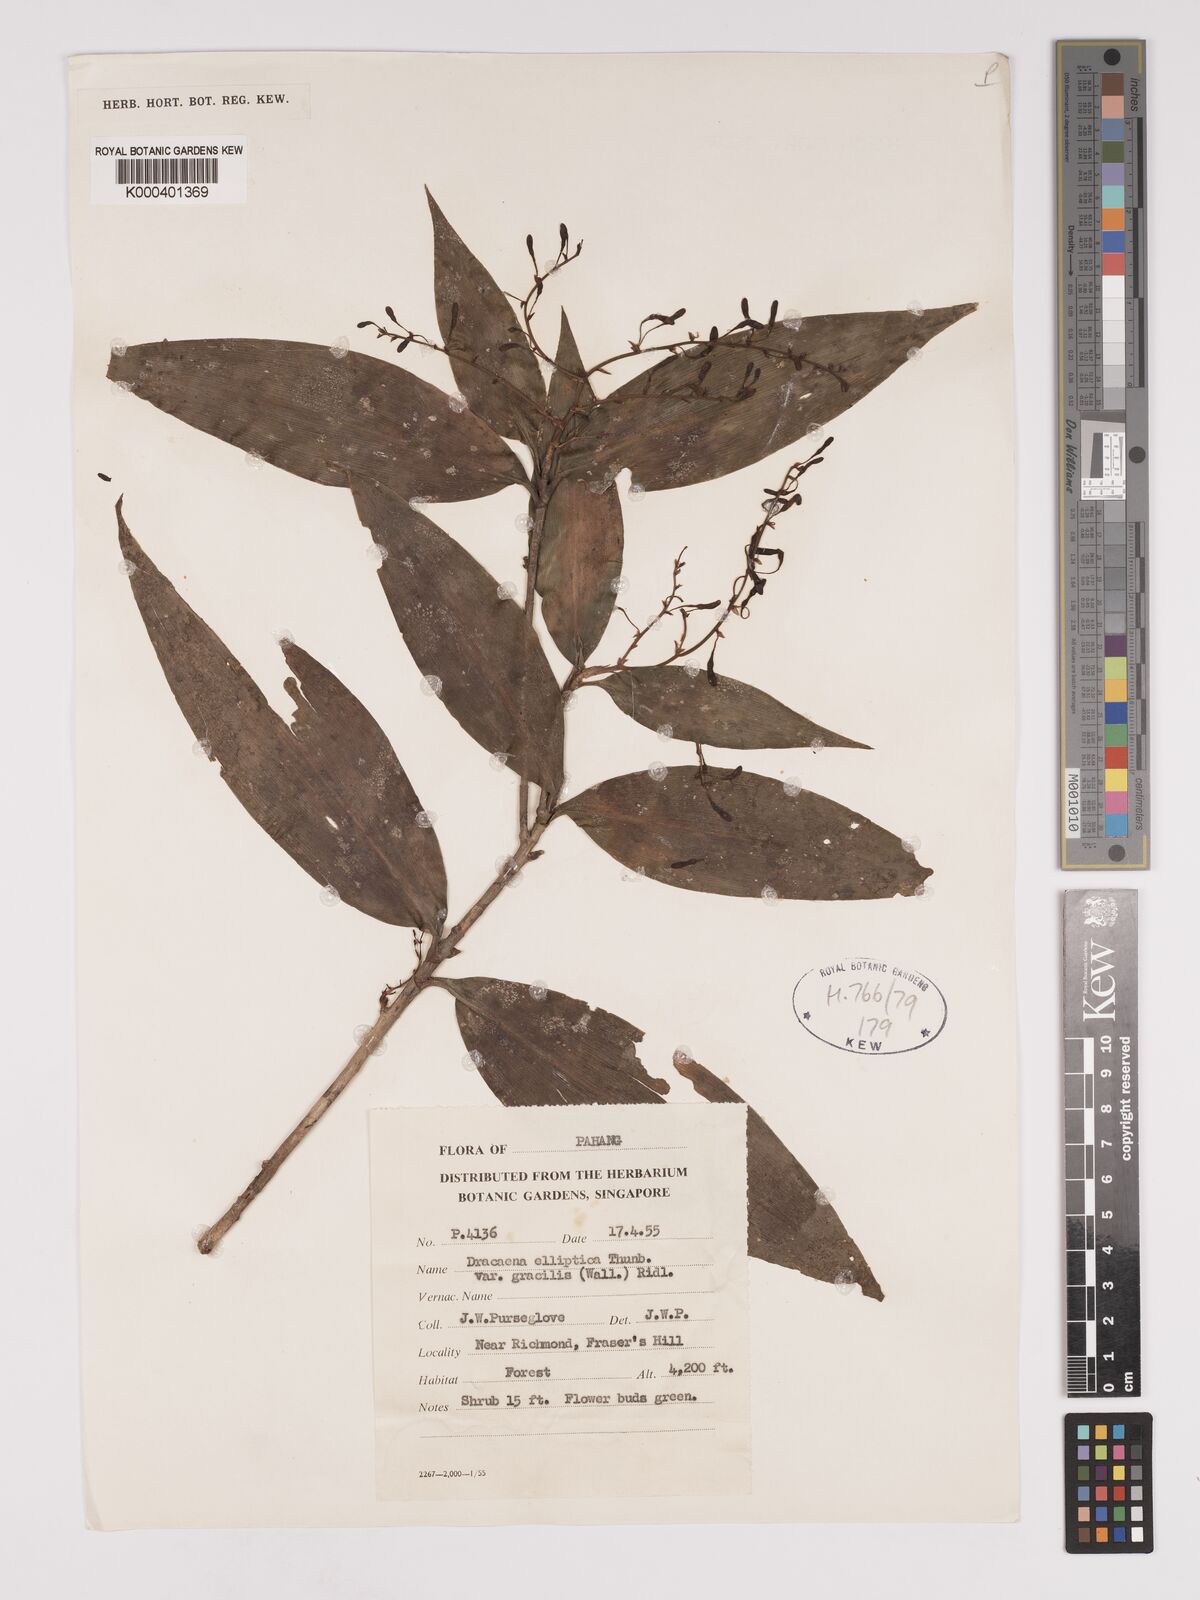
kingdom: Plantae
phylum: Tracheophyta
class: Liliopsida
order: Asparagales
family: Asparagaceae
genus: Dracaena
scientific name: Dracaena elliptica
